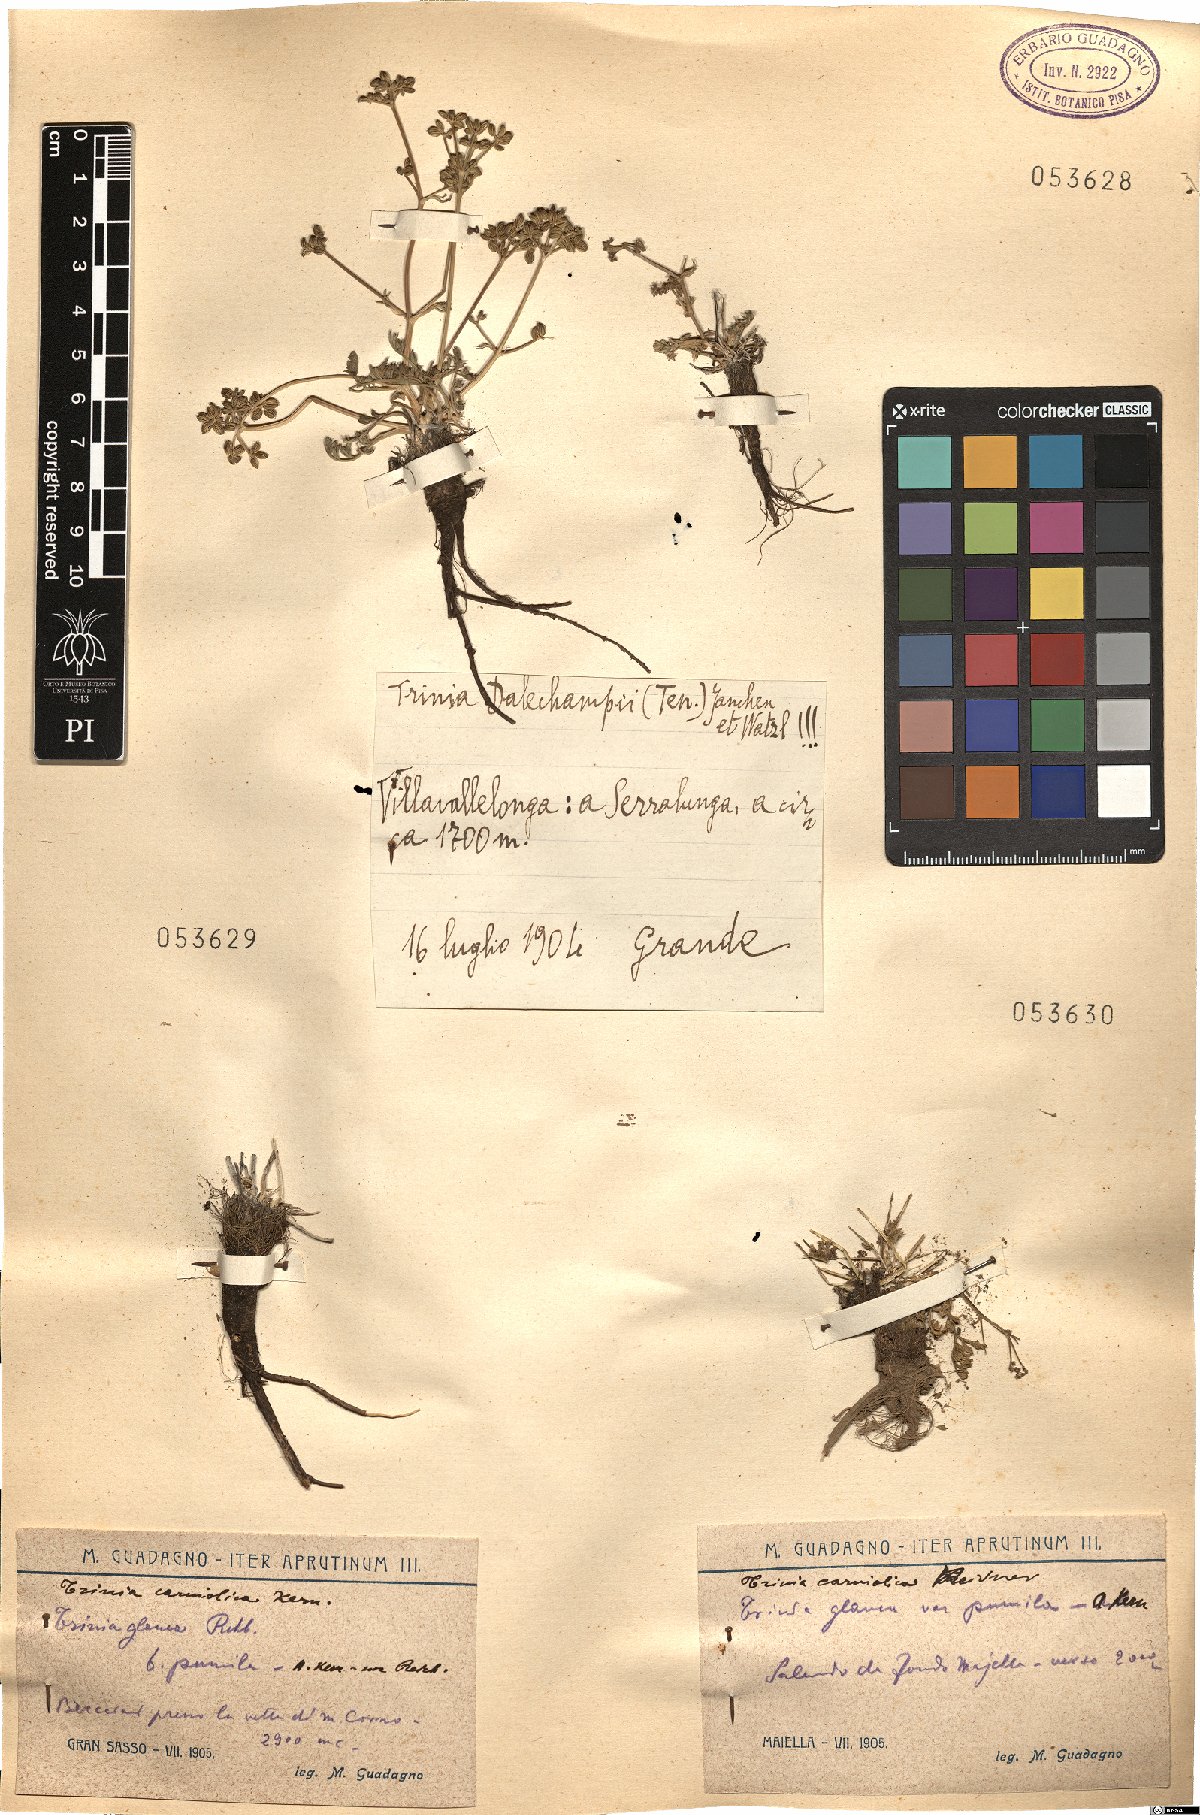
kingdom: Plantae
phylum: Tracheophyta
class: Magnoliopsida
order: Apiales
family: Apiaceae
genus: Trinia
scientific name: Trinia dalechampii
